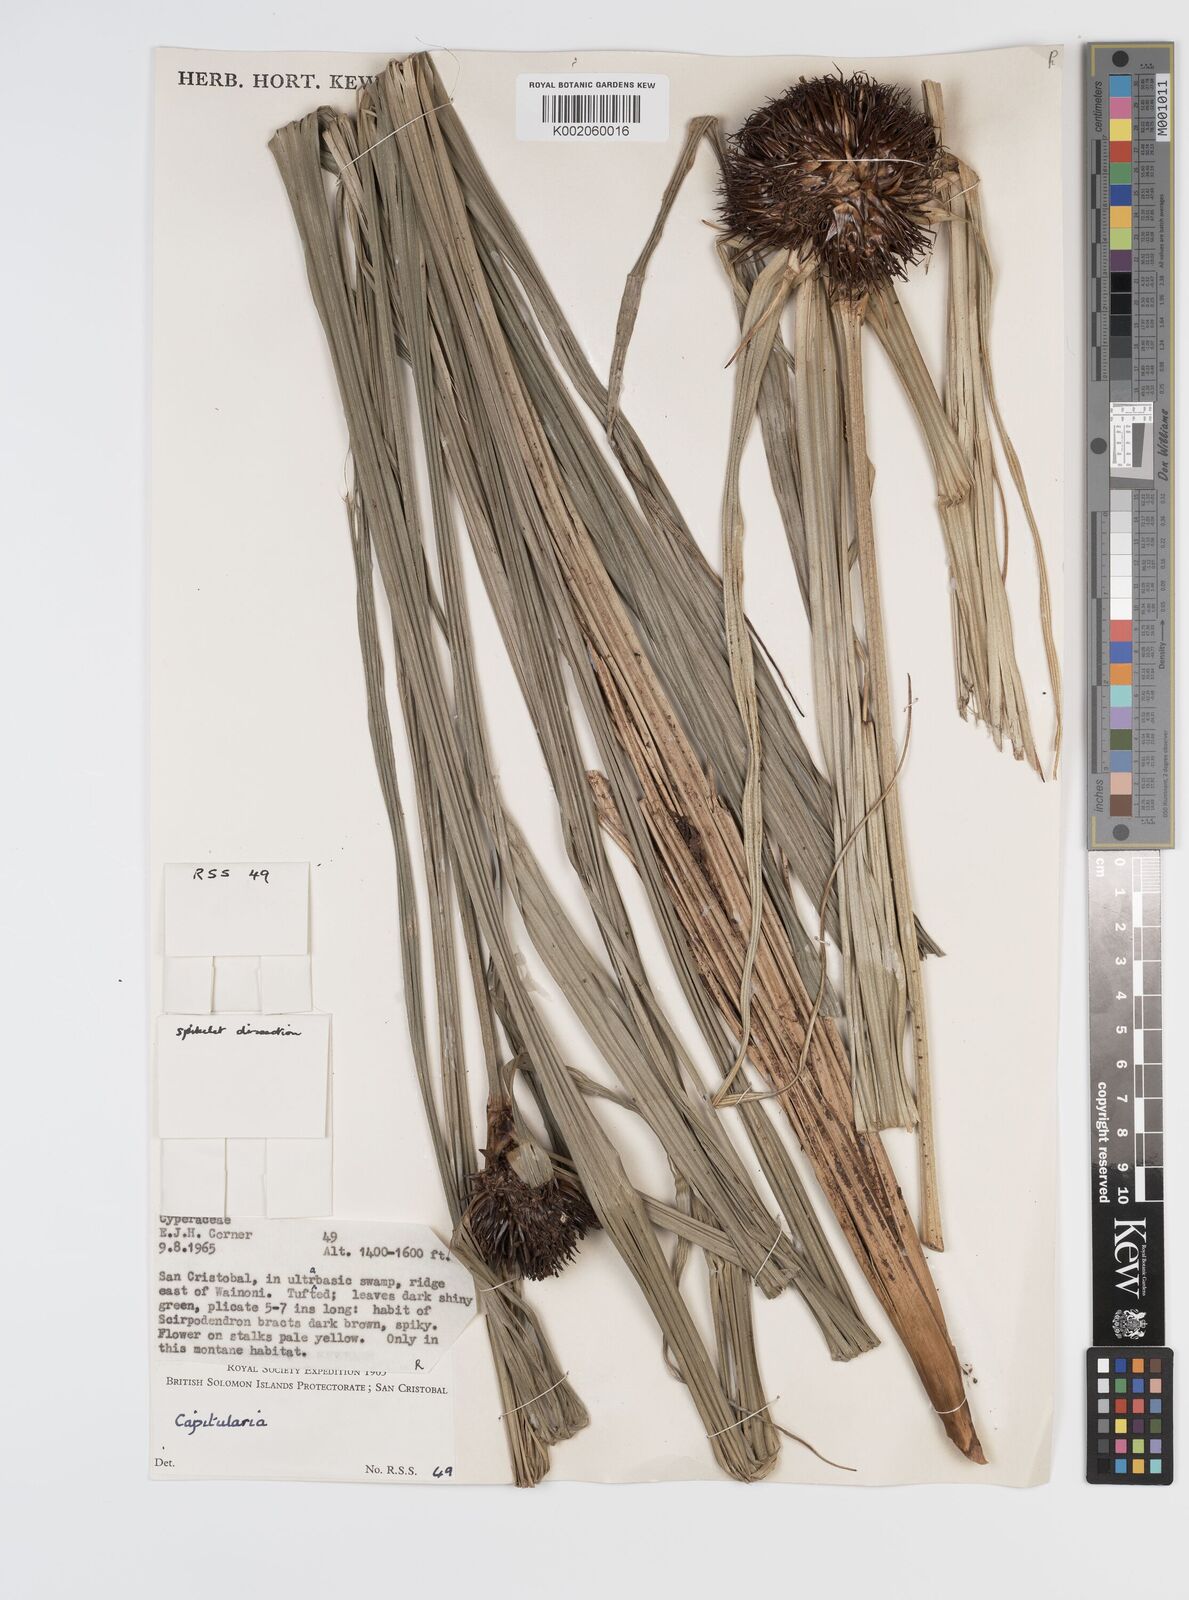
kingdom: Plantae
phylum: Tracheophyta
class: Liliopsida
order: Poales
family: Cyperaceae
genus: Capitularina
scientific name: Capitularina
